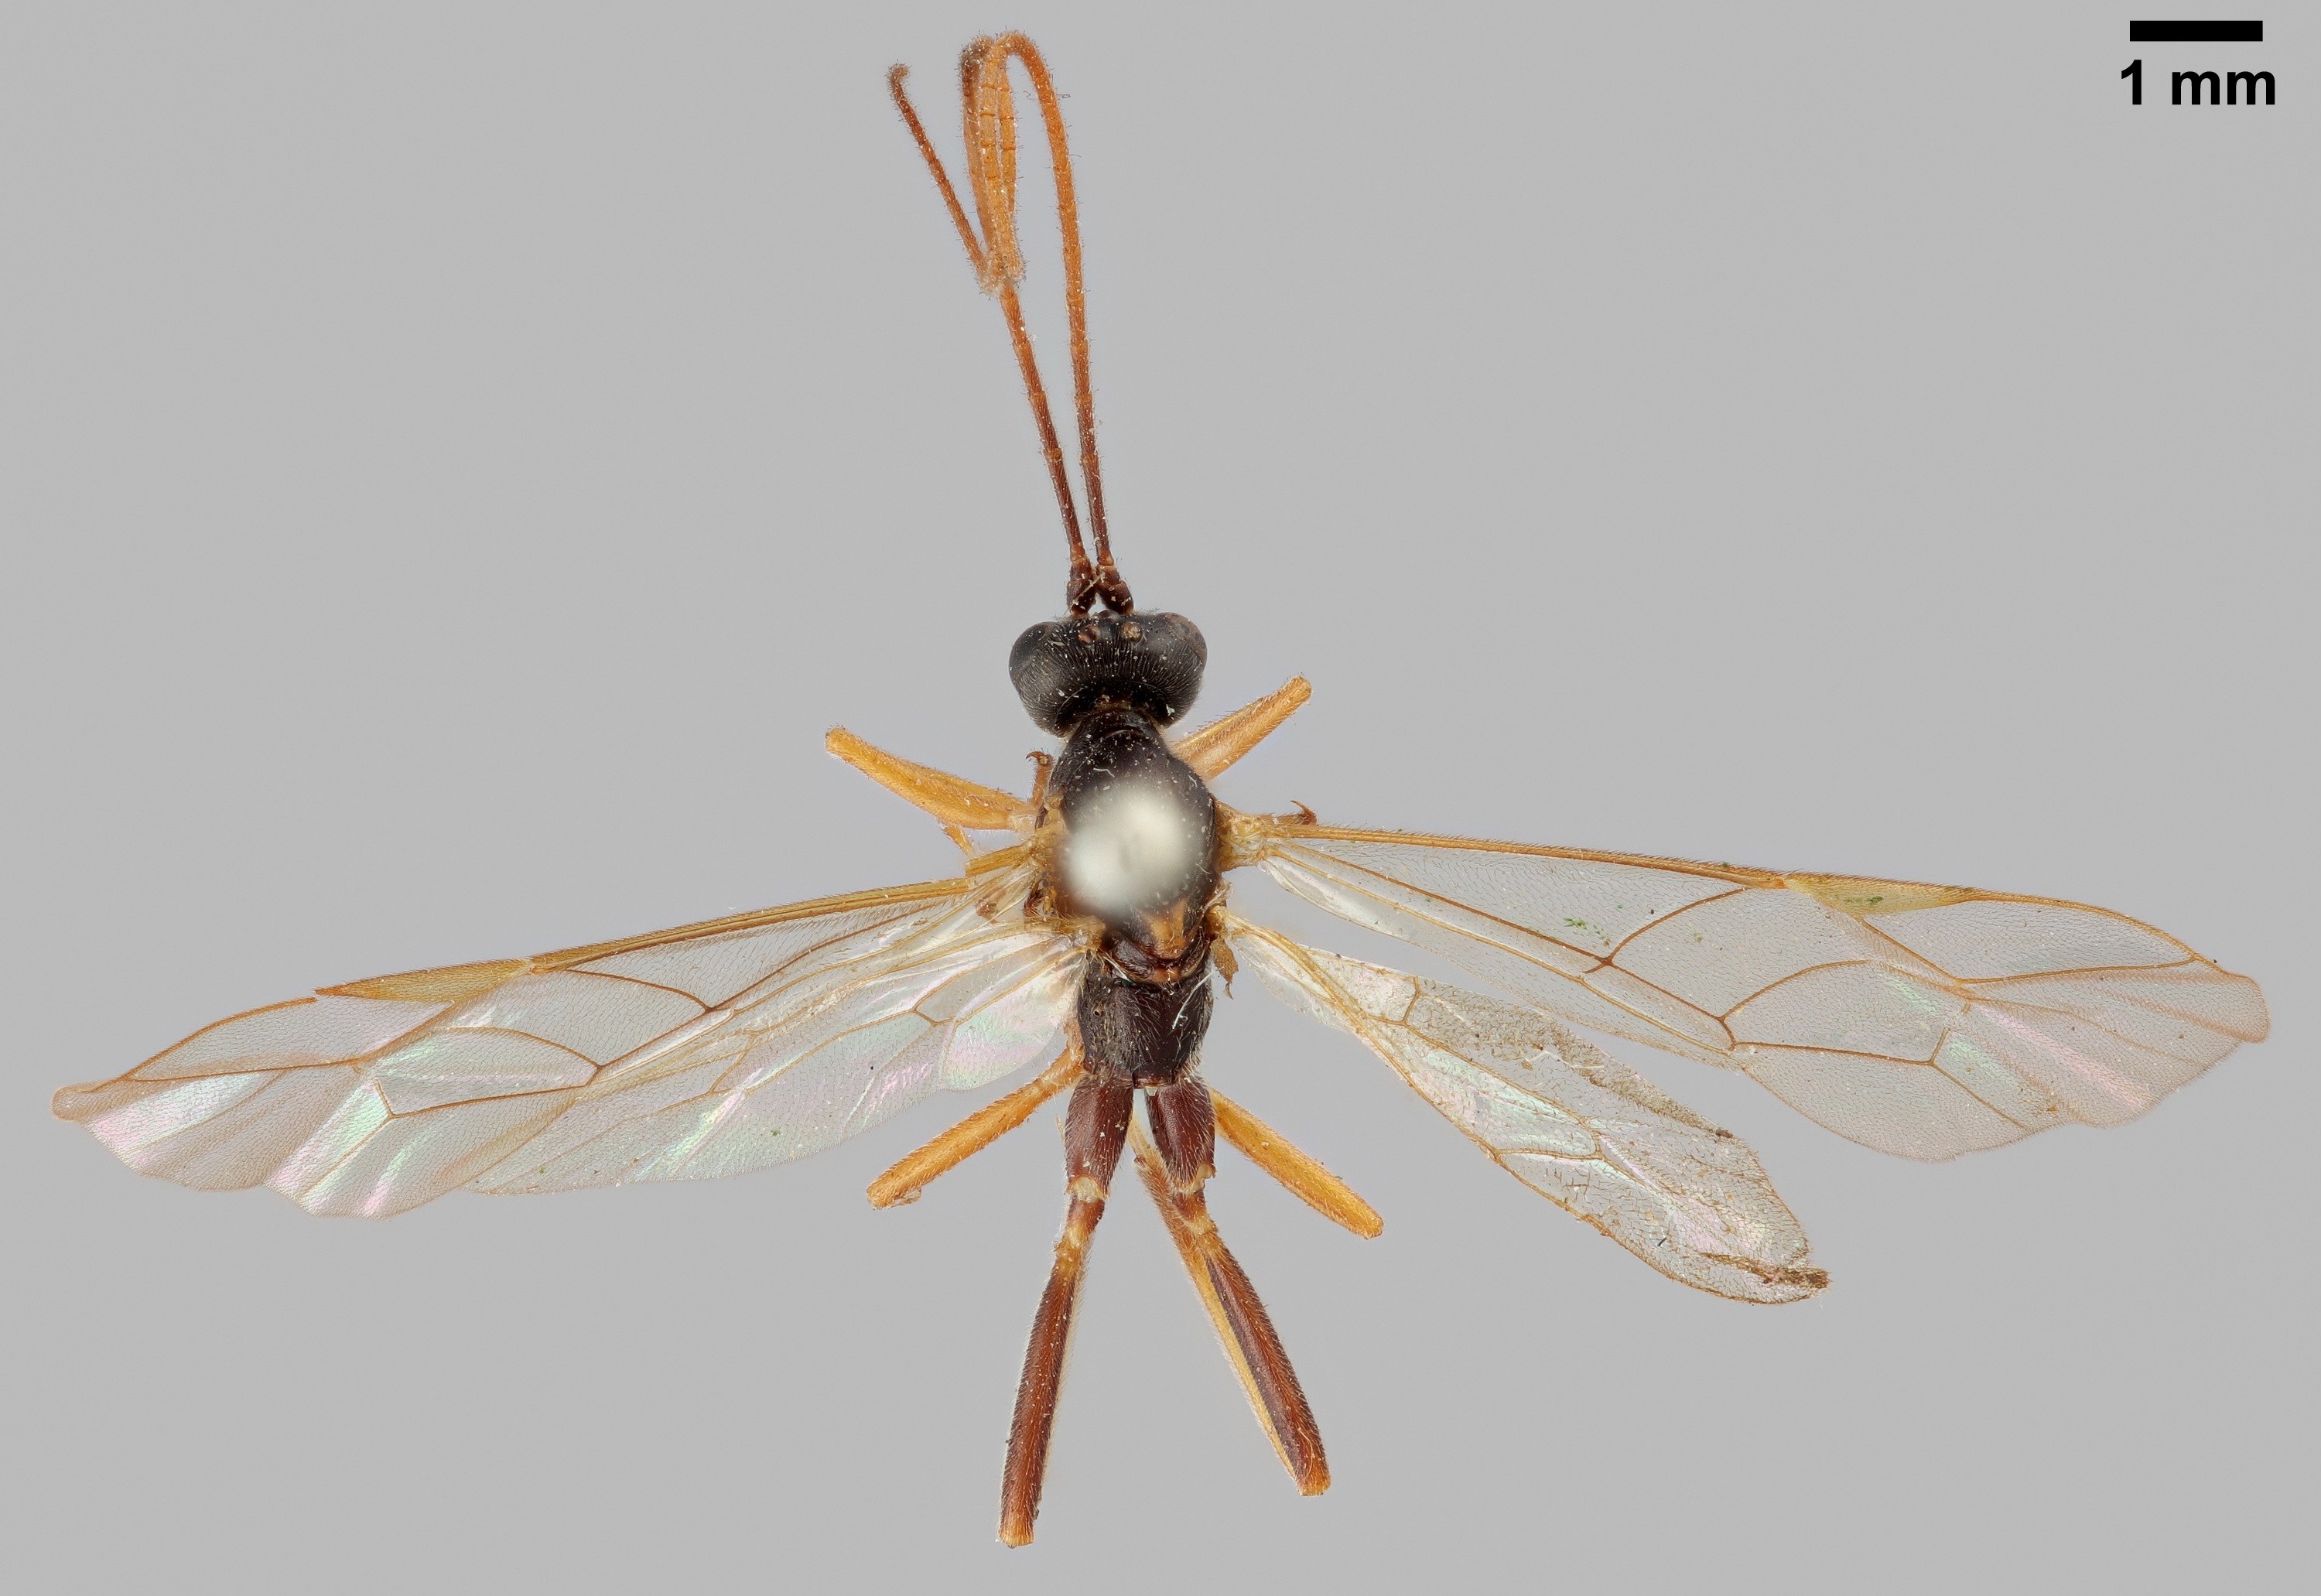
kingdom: Animalia
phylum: Arthropoda
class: Insecta
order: Hymenoptera
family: Ichneumonidae
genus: Alexeter
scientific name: Alexeter segmentarius
